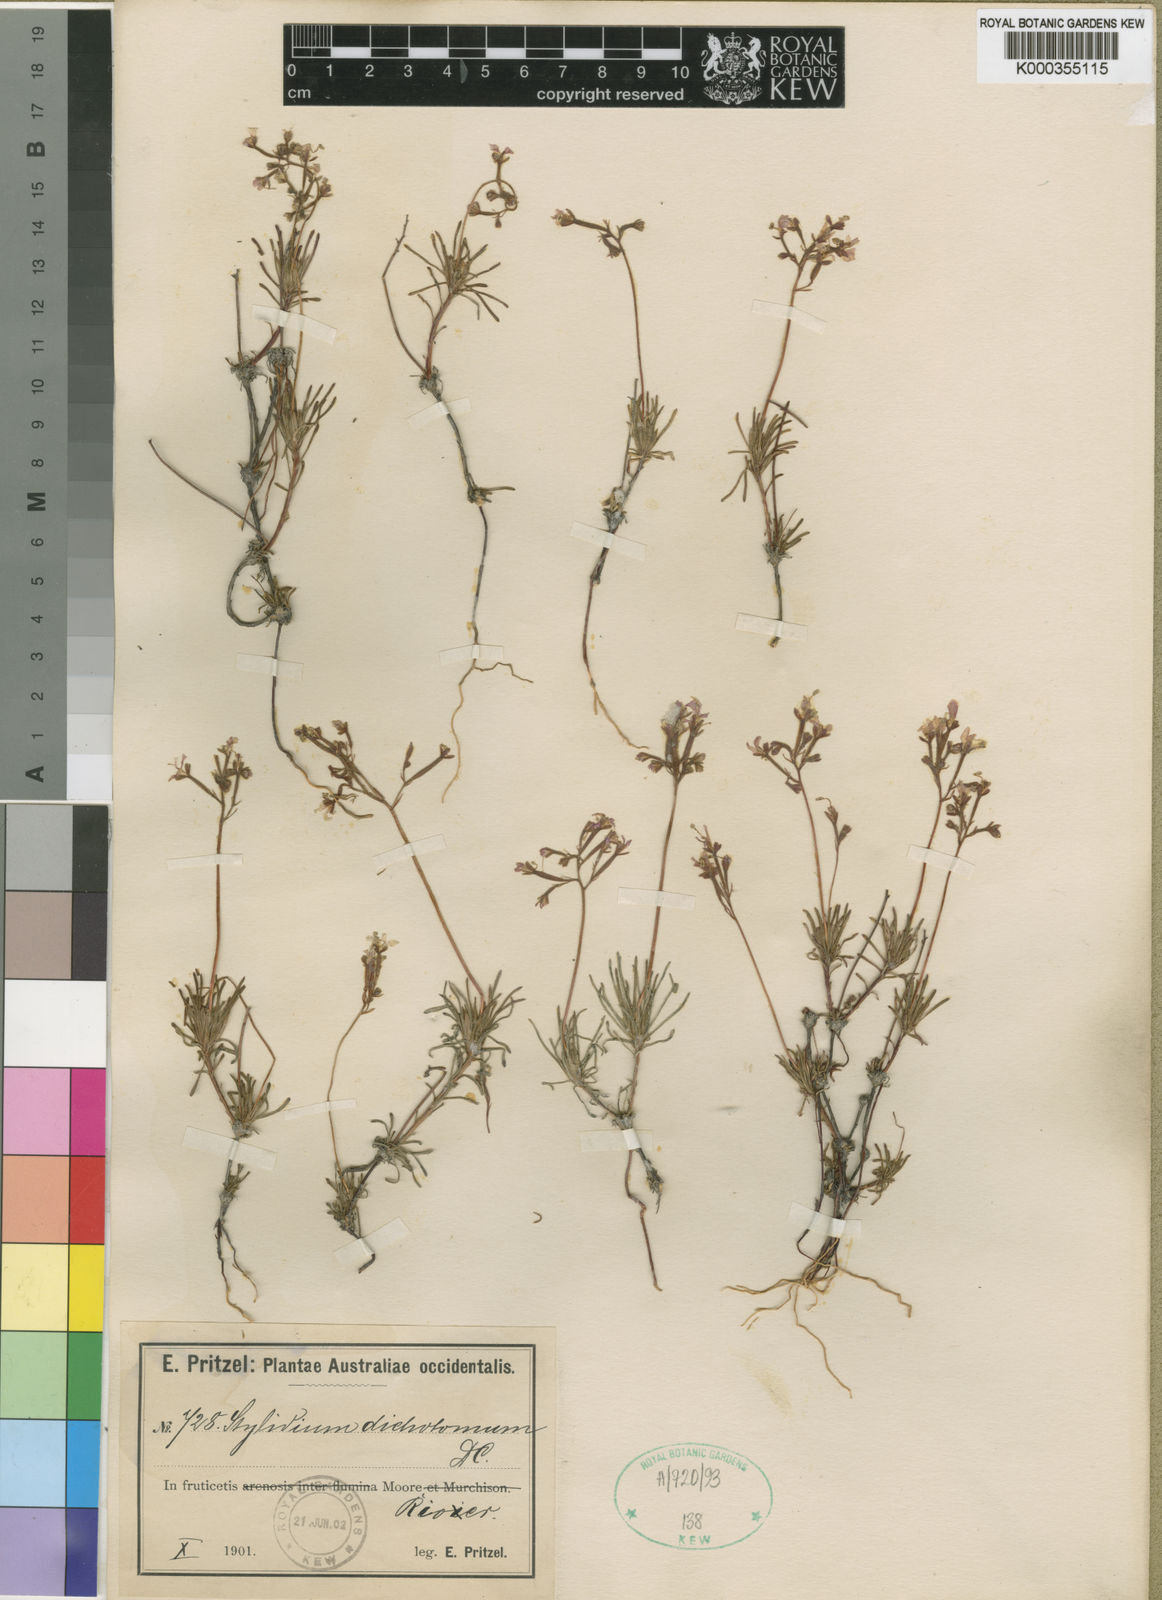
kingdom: Plantae
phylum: Tracheophyta
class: Magnoliopsida
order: Asterales
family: Stylidiaceae
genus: Stylidium
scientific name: Stylidium dichotomum
